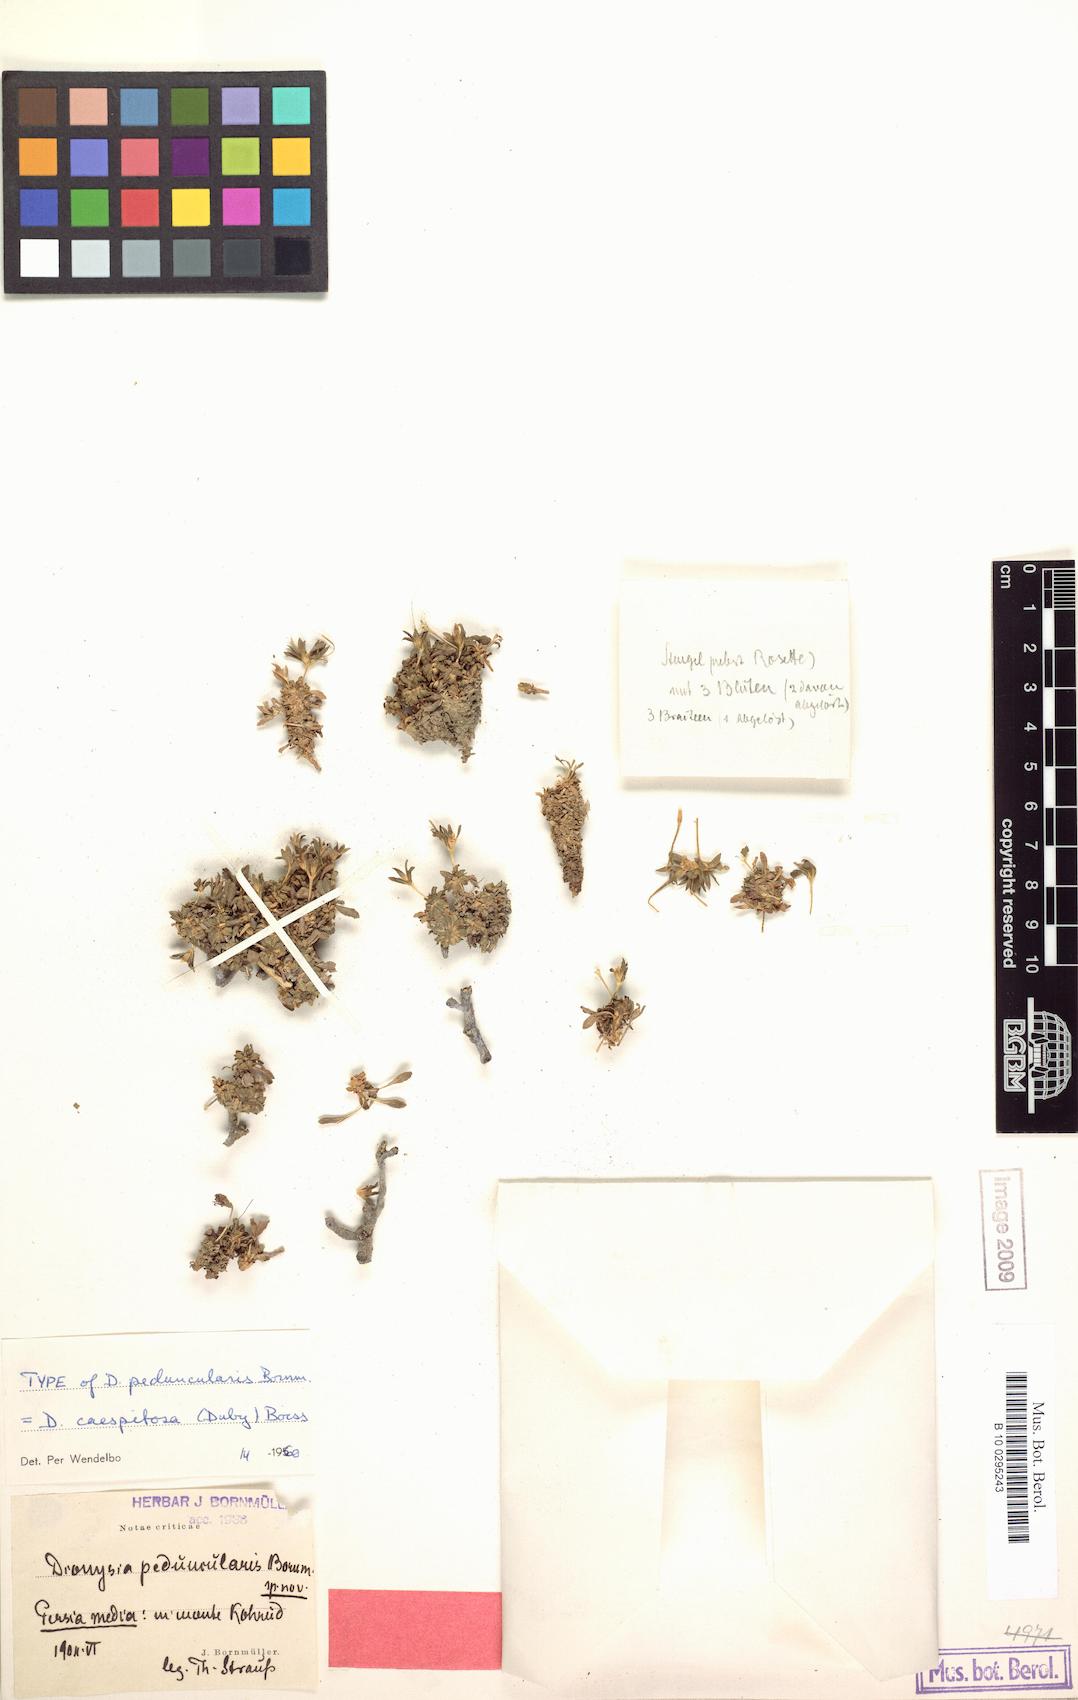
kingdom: Plantae
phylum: Tracheophyta
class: Magnoliopsida
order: Ericales
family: Primulaceae
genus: Dionysia
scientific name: Dionysia caespitosa
